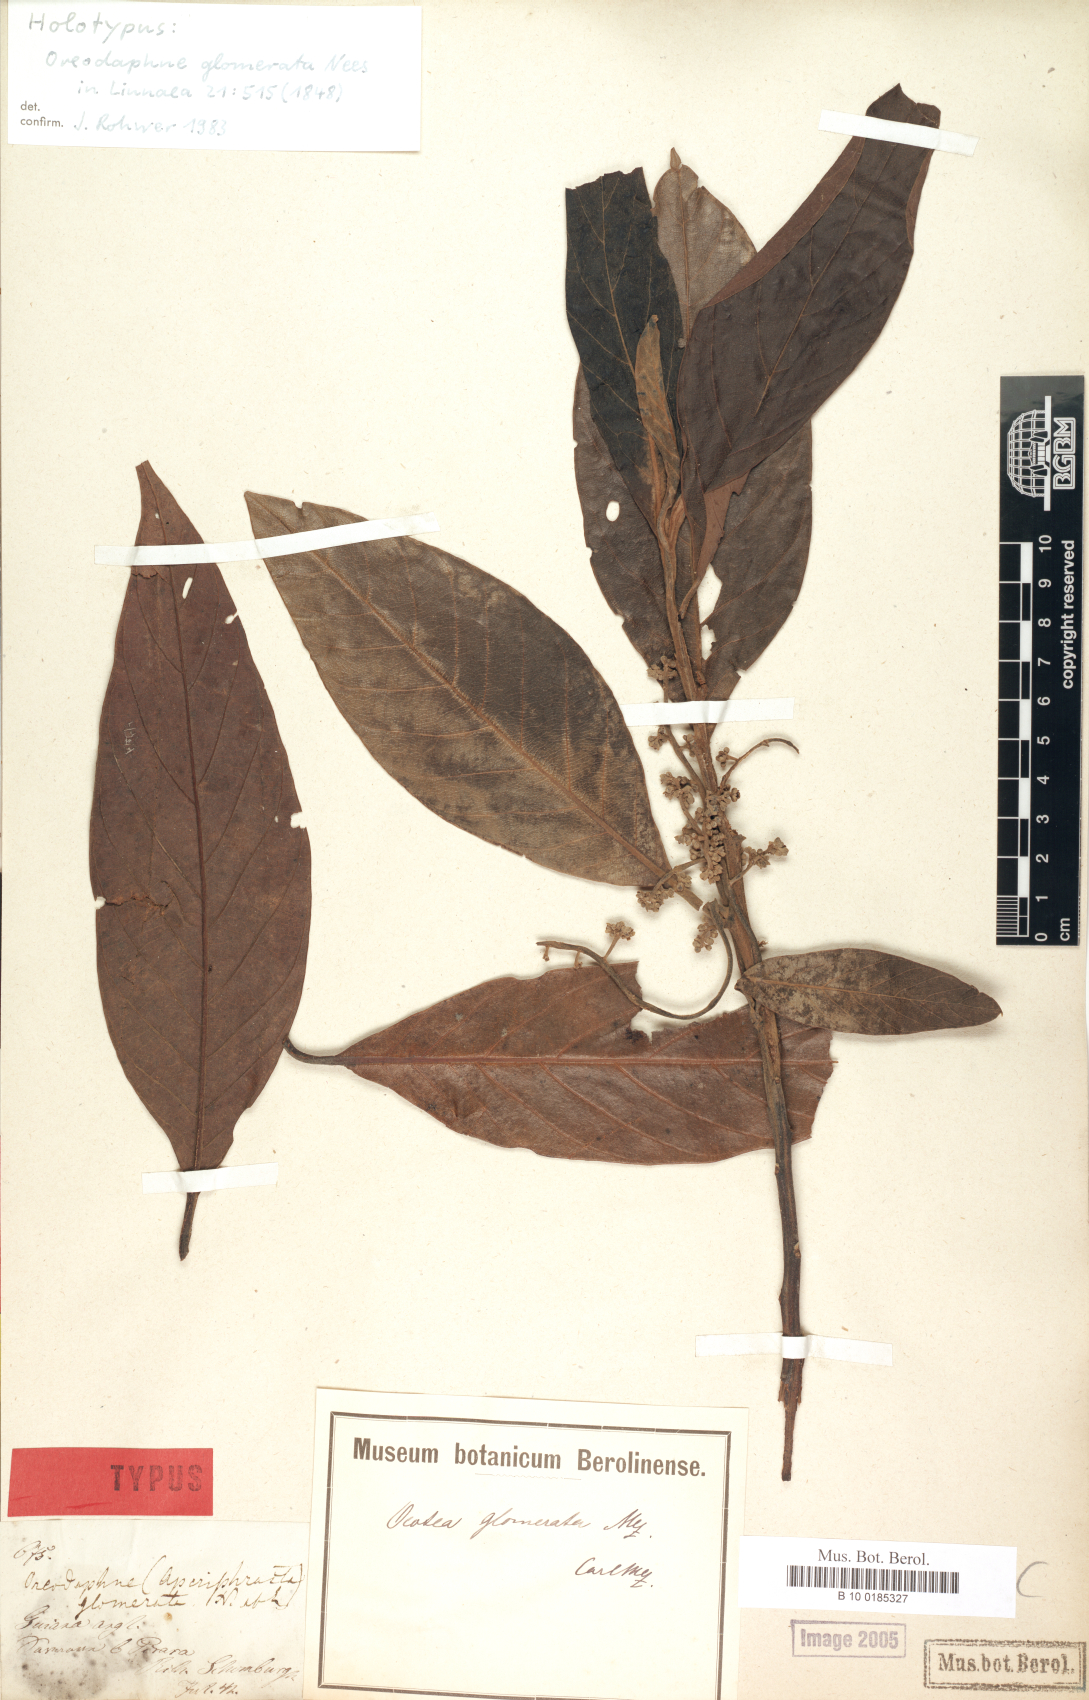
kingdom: Plantae
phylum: Tracheophyta
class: Magnoliopsida
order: Laurales
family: Lauraceae
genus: Ocotea
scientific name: Ocotea glomerata
